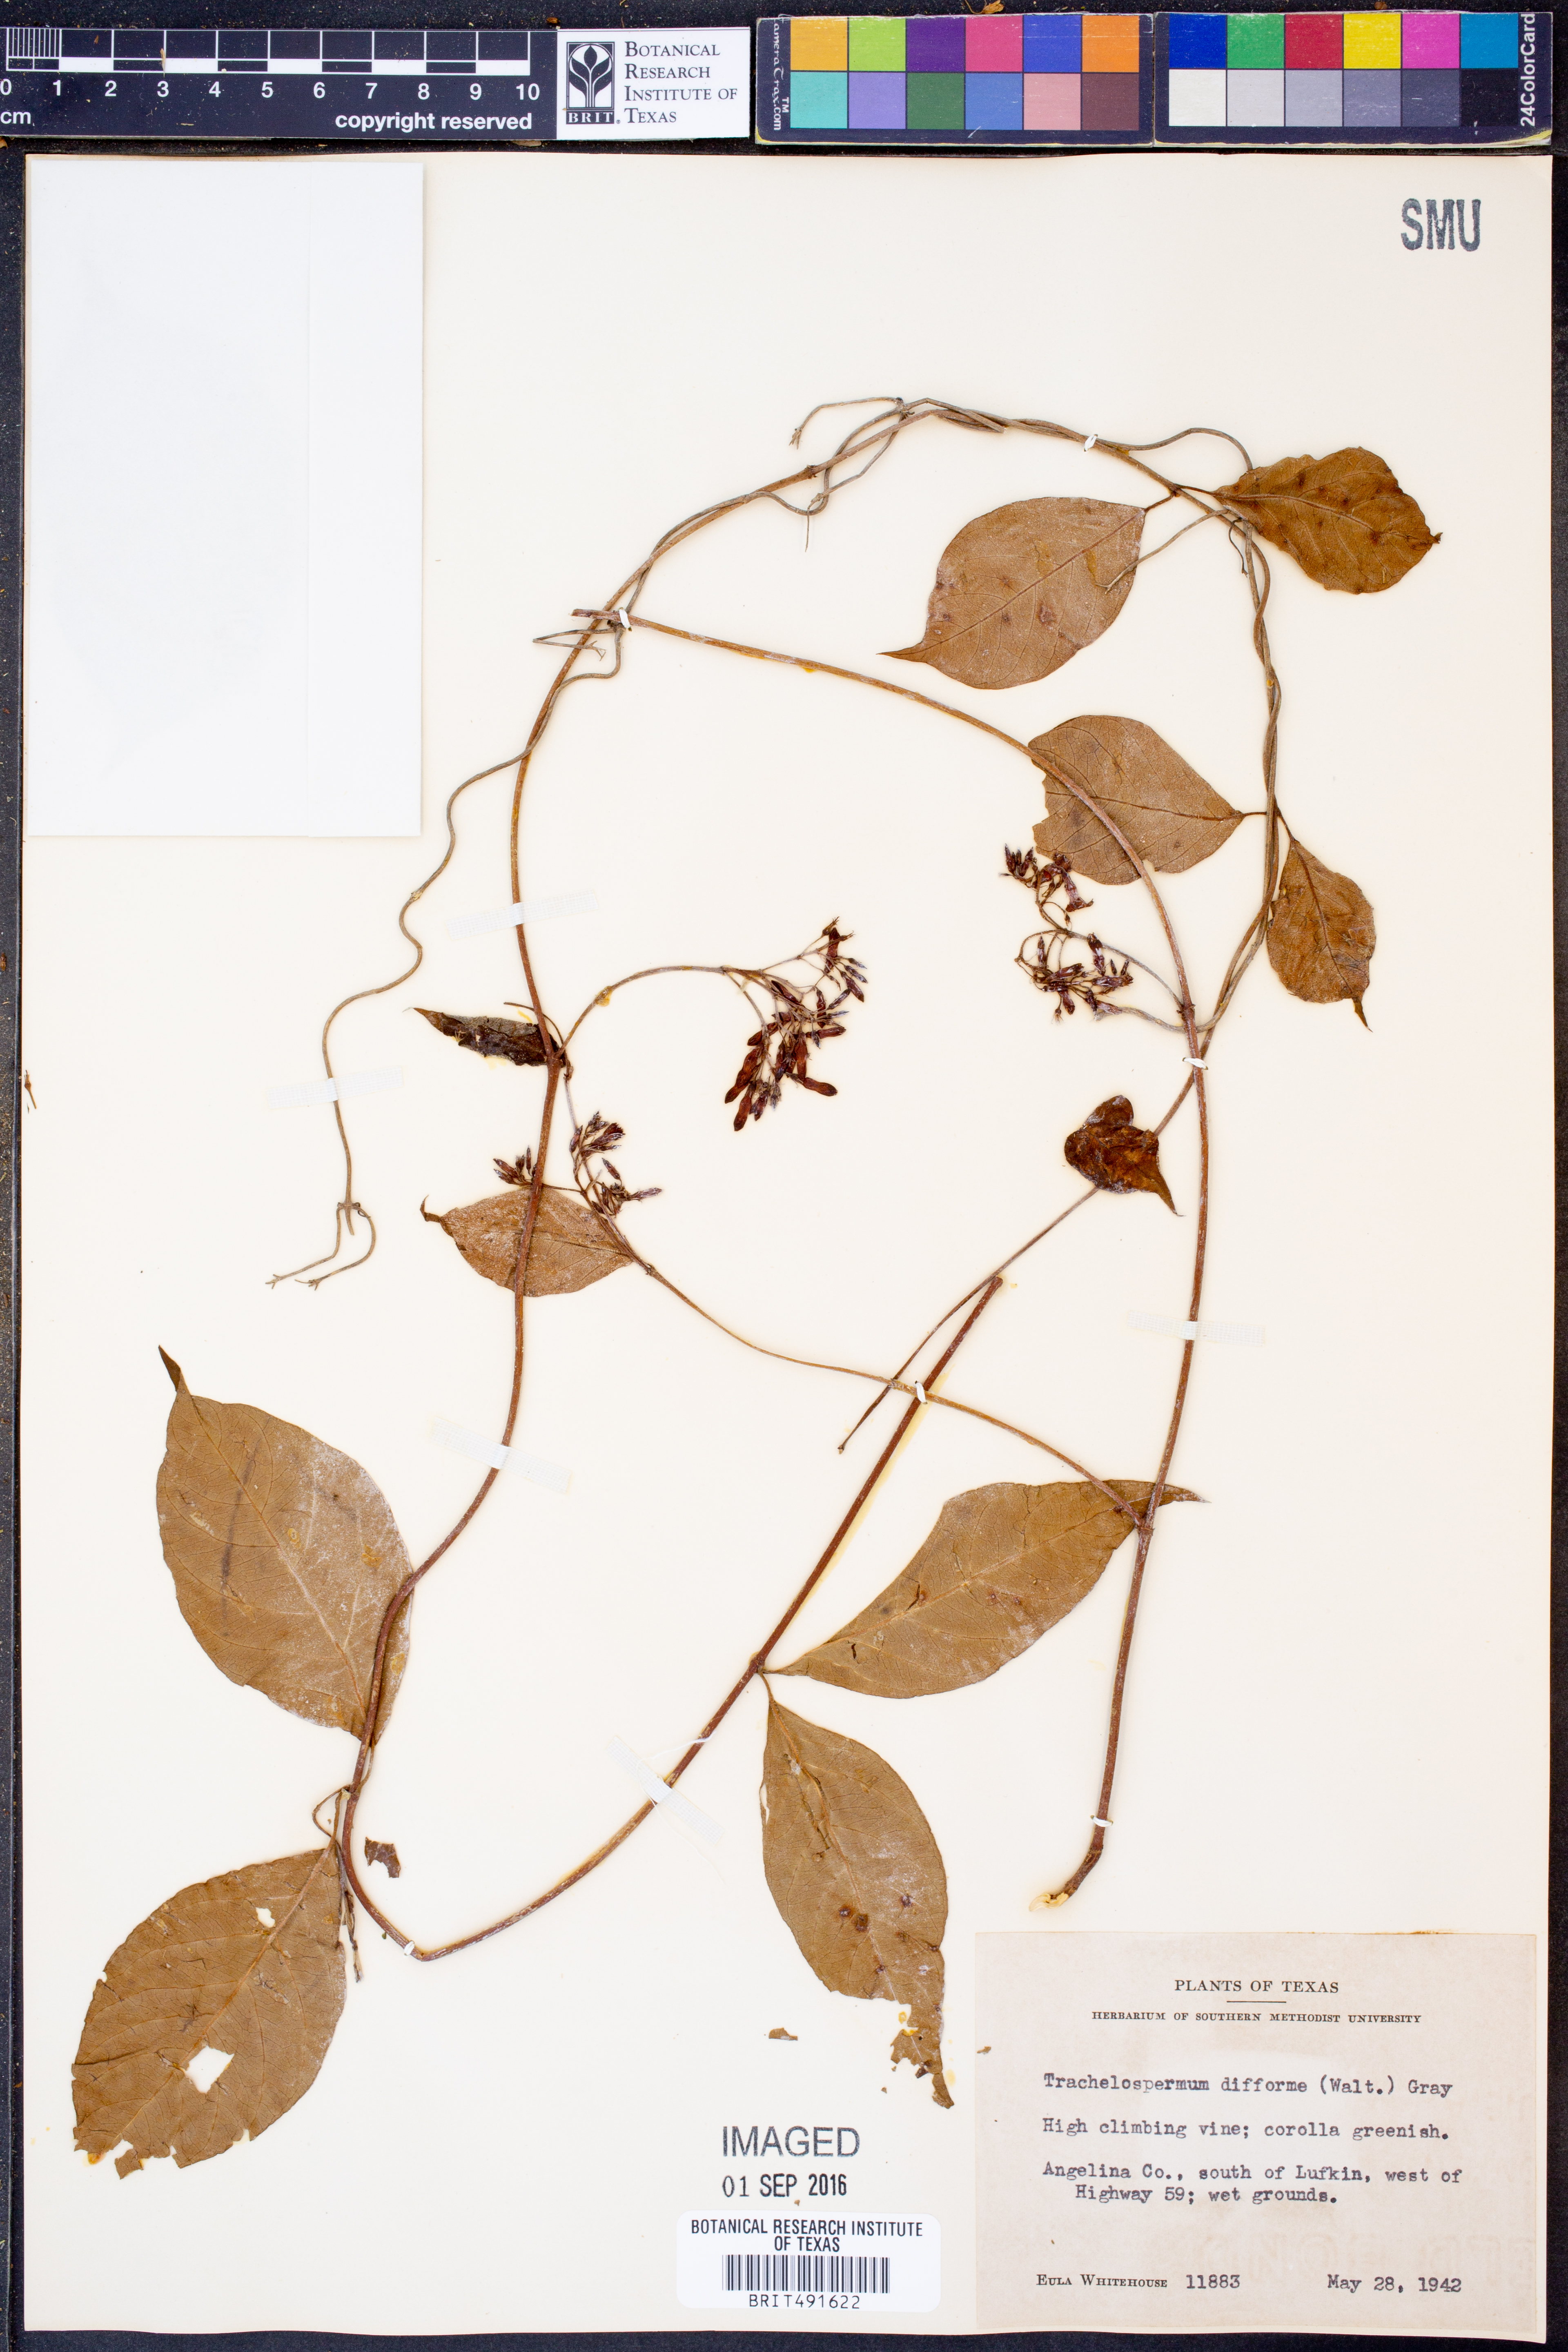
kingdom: Plantae
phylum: Tracheophyta
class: Magnoliopsida
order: Gentianales
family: Apocynaceae
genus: Thyrsanthella
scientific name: Thyrsanthella difformis
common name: Climbing dogbane
